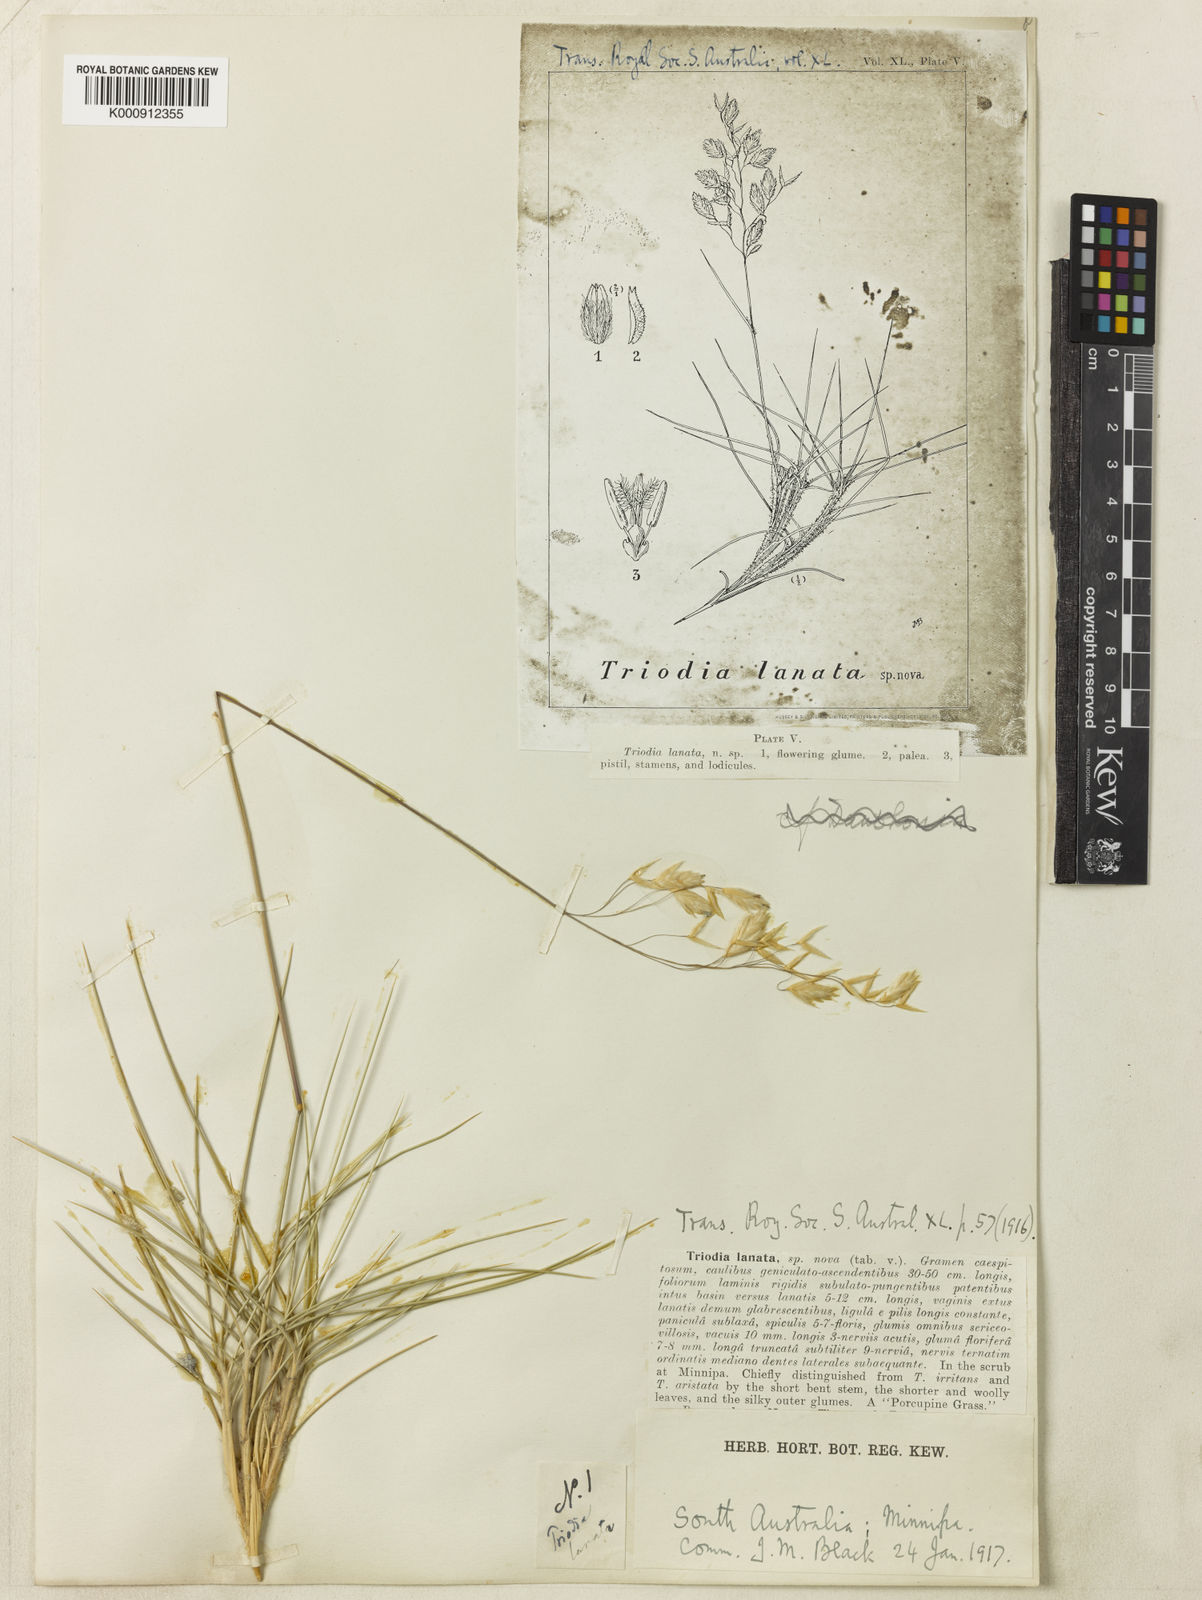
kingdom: Plantae
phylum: Tracheophyta
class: Liliopsida
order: Poales
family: Poaceae
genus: Triodia
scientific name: Triodia lanata
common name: Wooly spinifex
